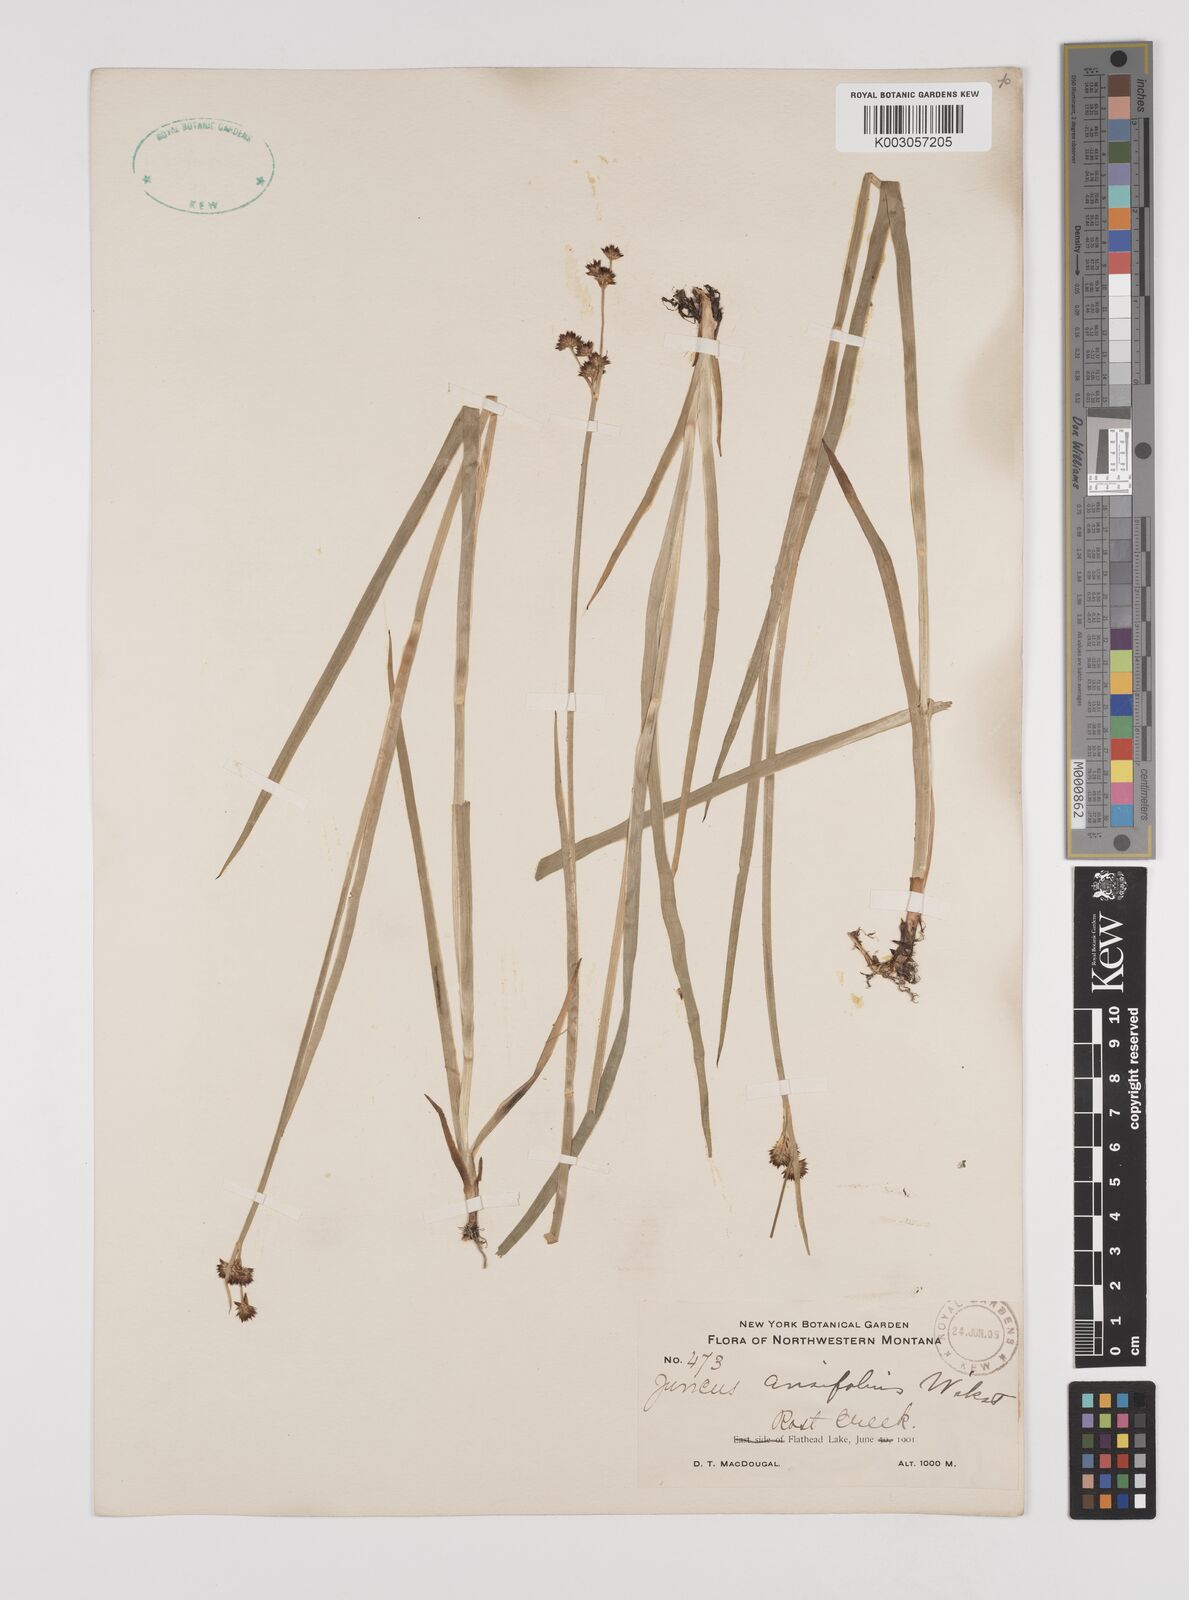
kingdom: Plantae
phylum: Tracheophyta
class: Liliopsida
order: Poales
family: Juncaceae
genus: Juncus
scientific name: Juncus ensifolius
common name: Sword-leaved rush
